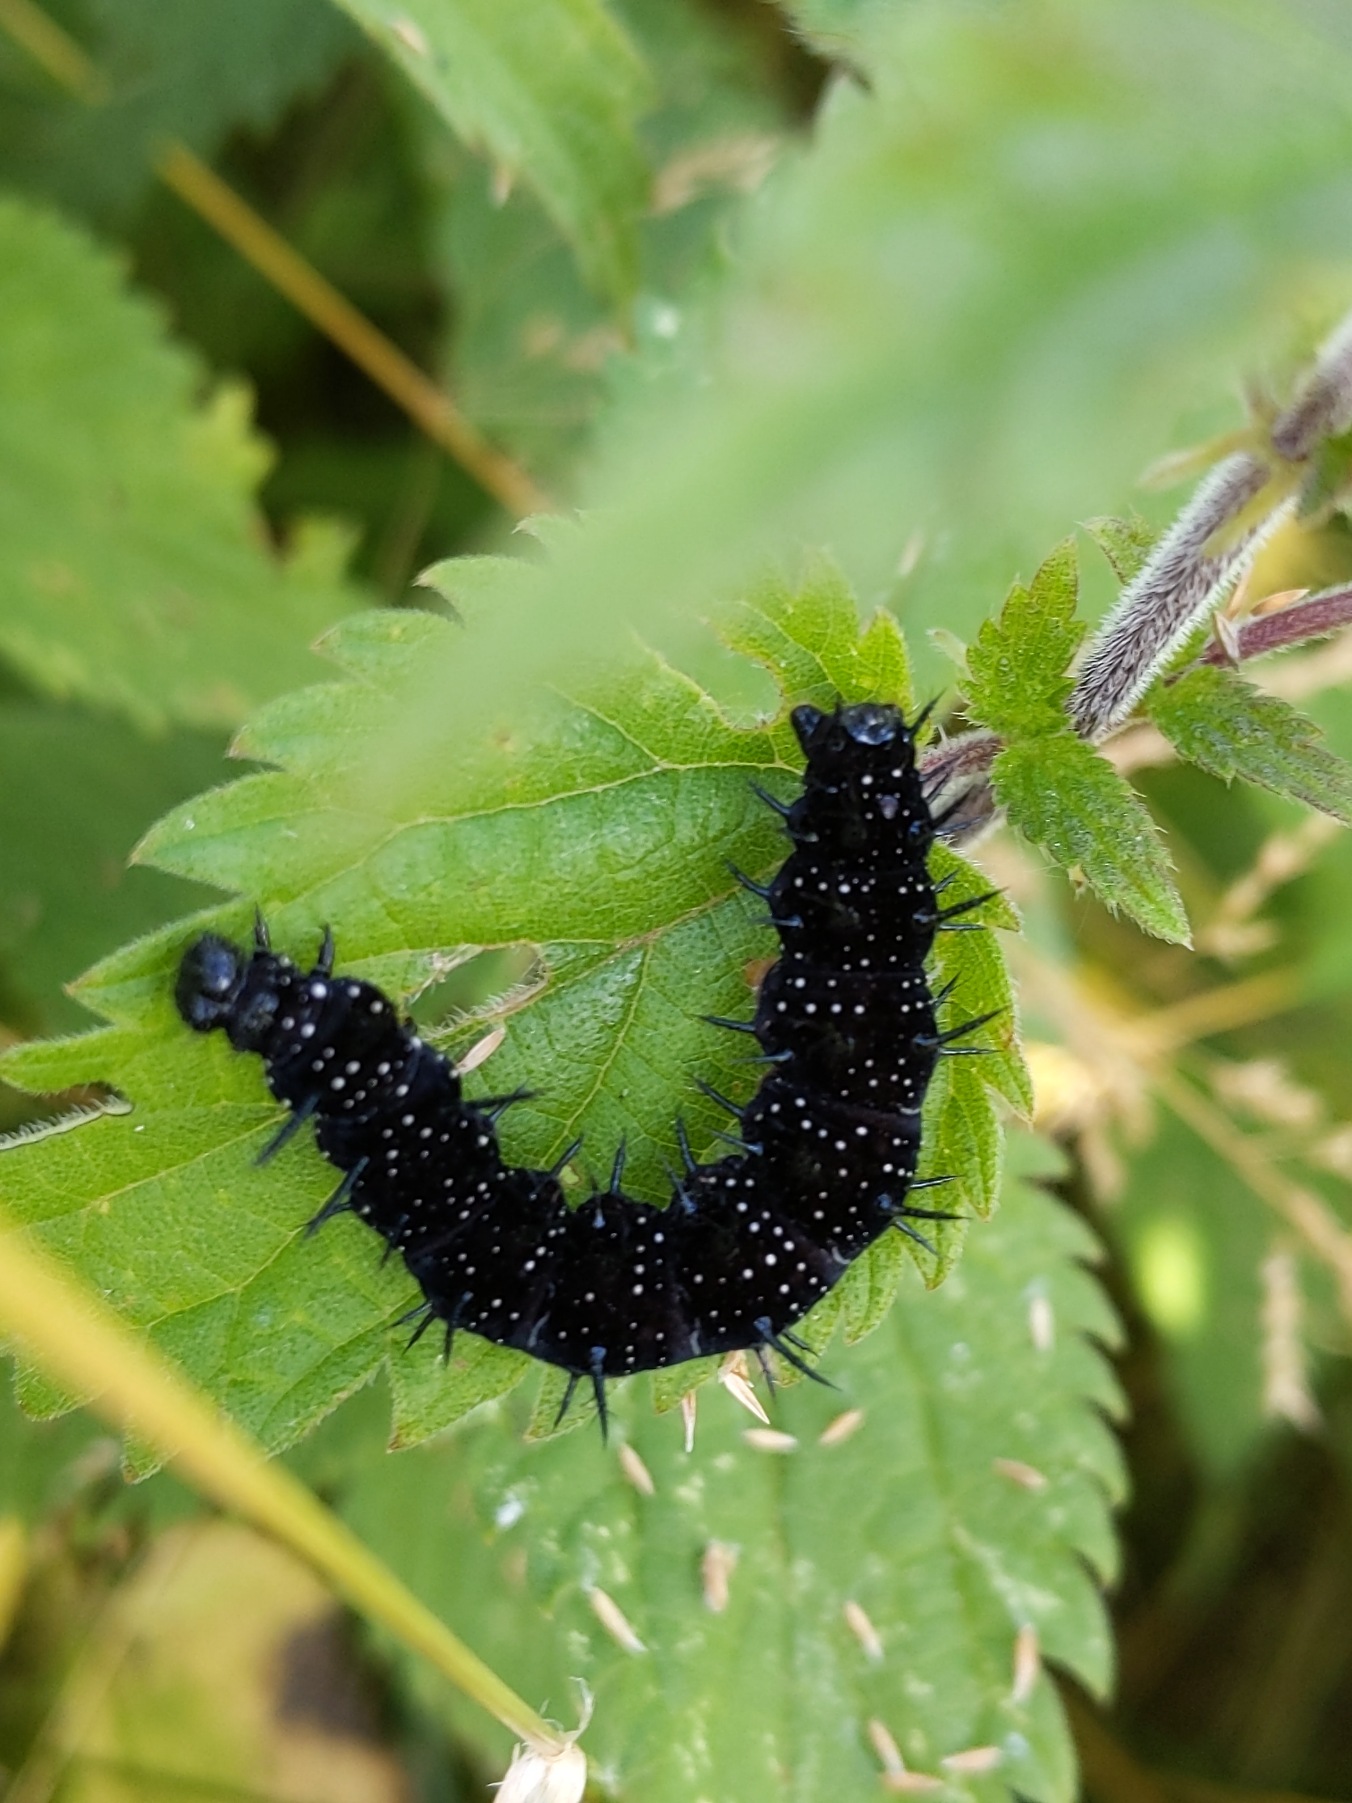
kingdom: Animalia
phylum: Arthropoda
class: Insecta
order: Lepidoptera
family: Nymphalidae
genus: Aglais
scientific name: Aglais io
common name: Dagpåfugleøje
